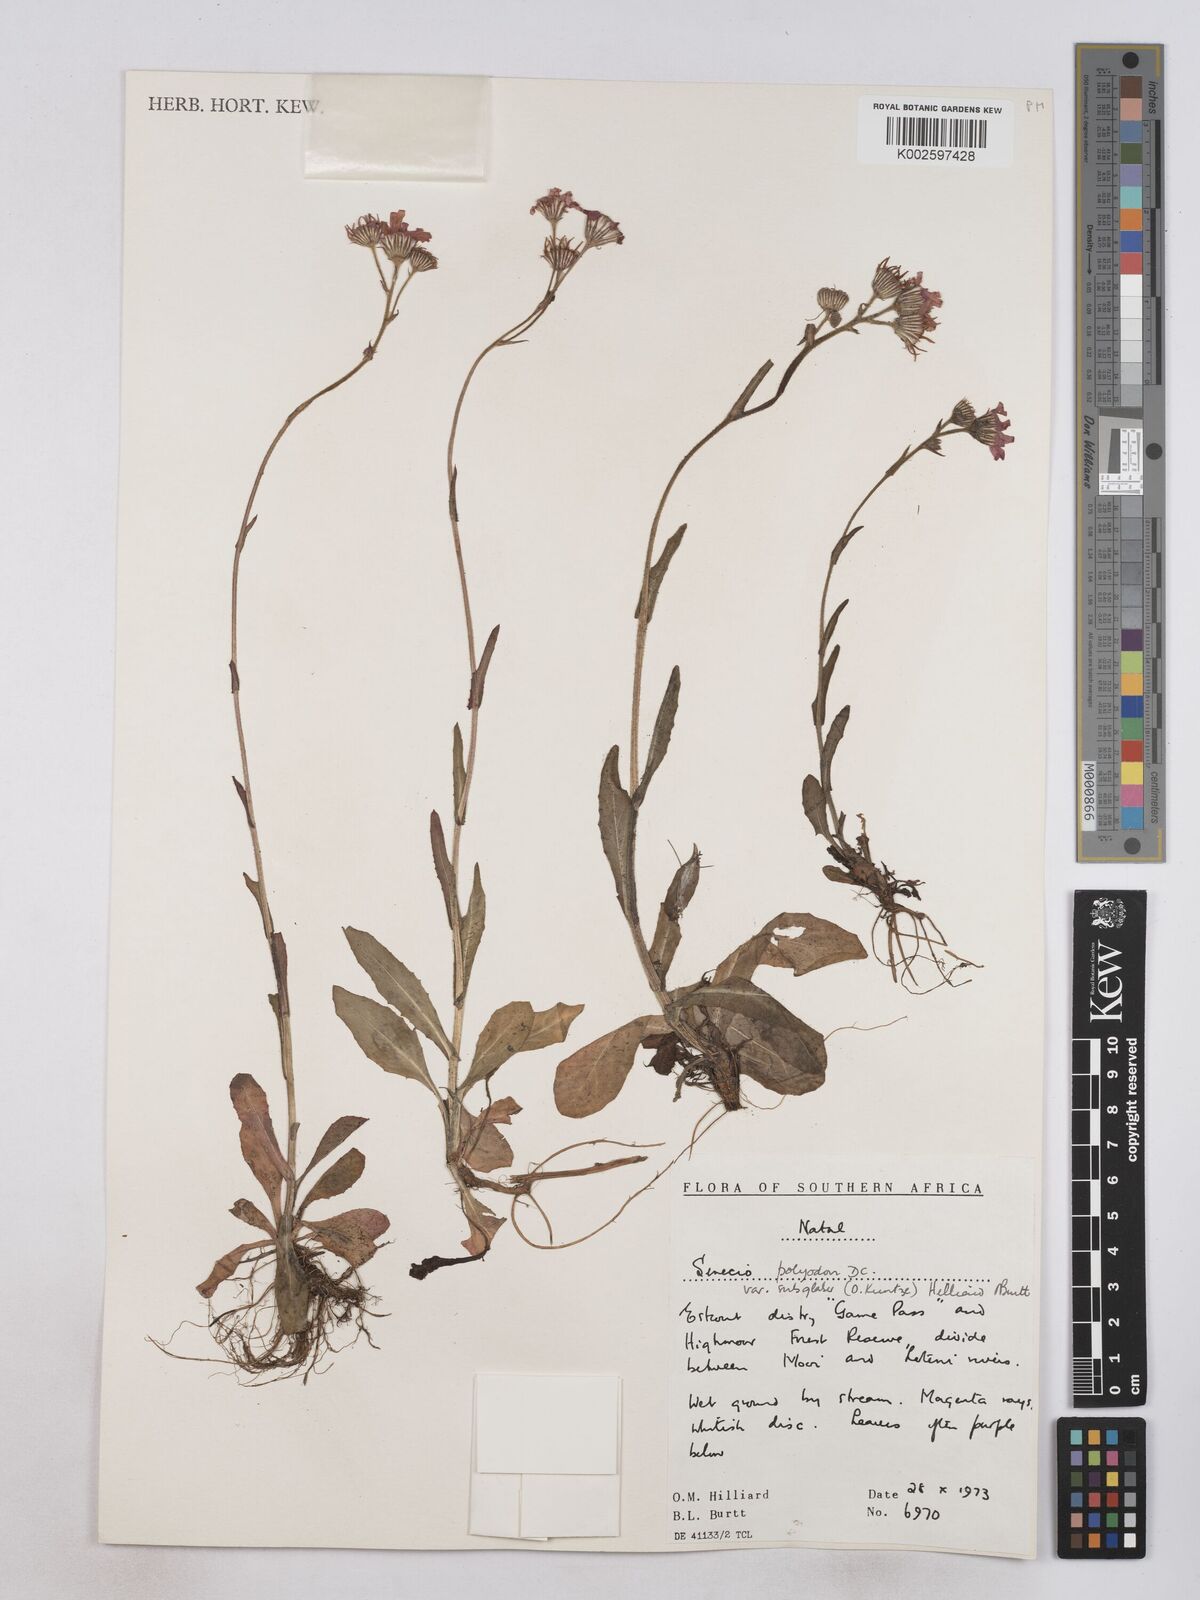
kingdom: Plantae
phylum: Tracheophyta
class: Magnoliopsida
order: Asterales
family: Asteraceae
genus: Senecio
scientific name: Senecio polyodon
